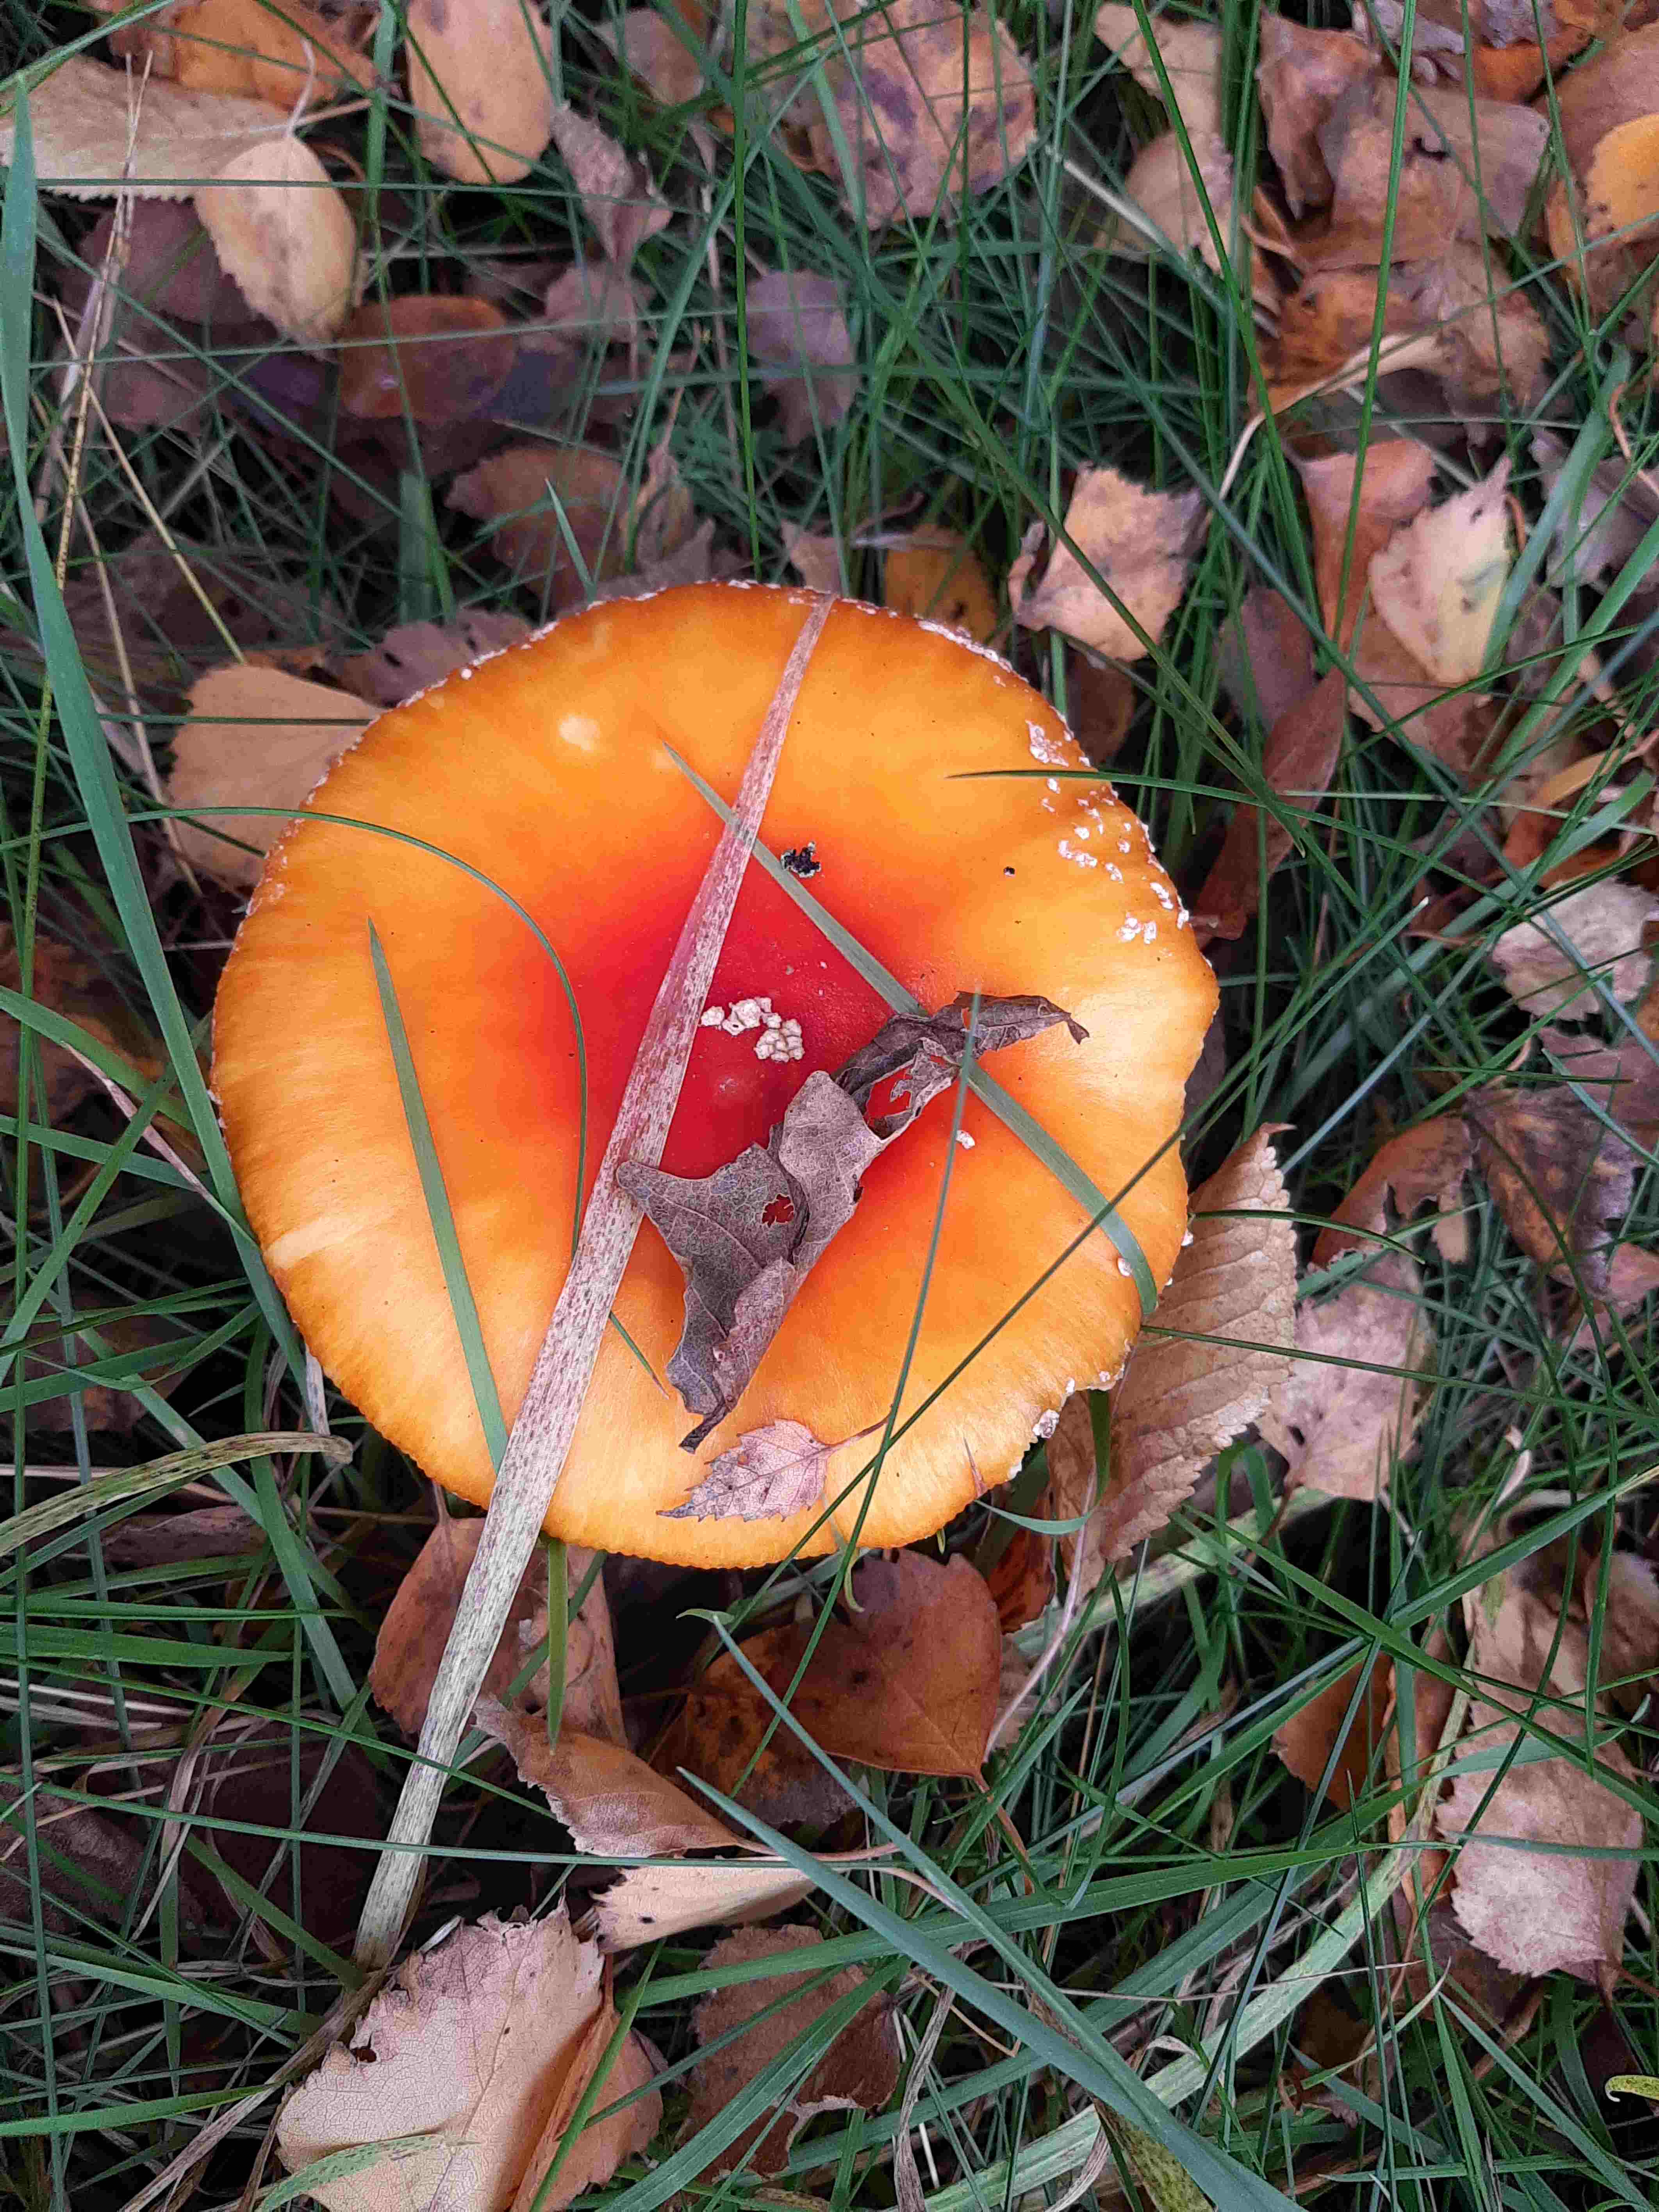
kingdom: Fungi
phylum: Basidiomycota
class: Agaricomycetes
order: Agaricales
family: Amanitaceae
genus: Amanita
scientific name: Amanita muscaria
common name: rød fluesvamp
